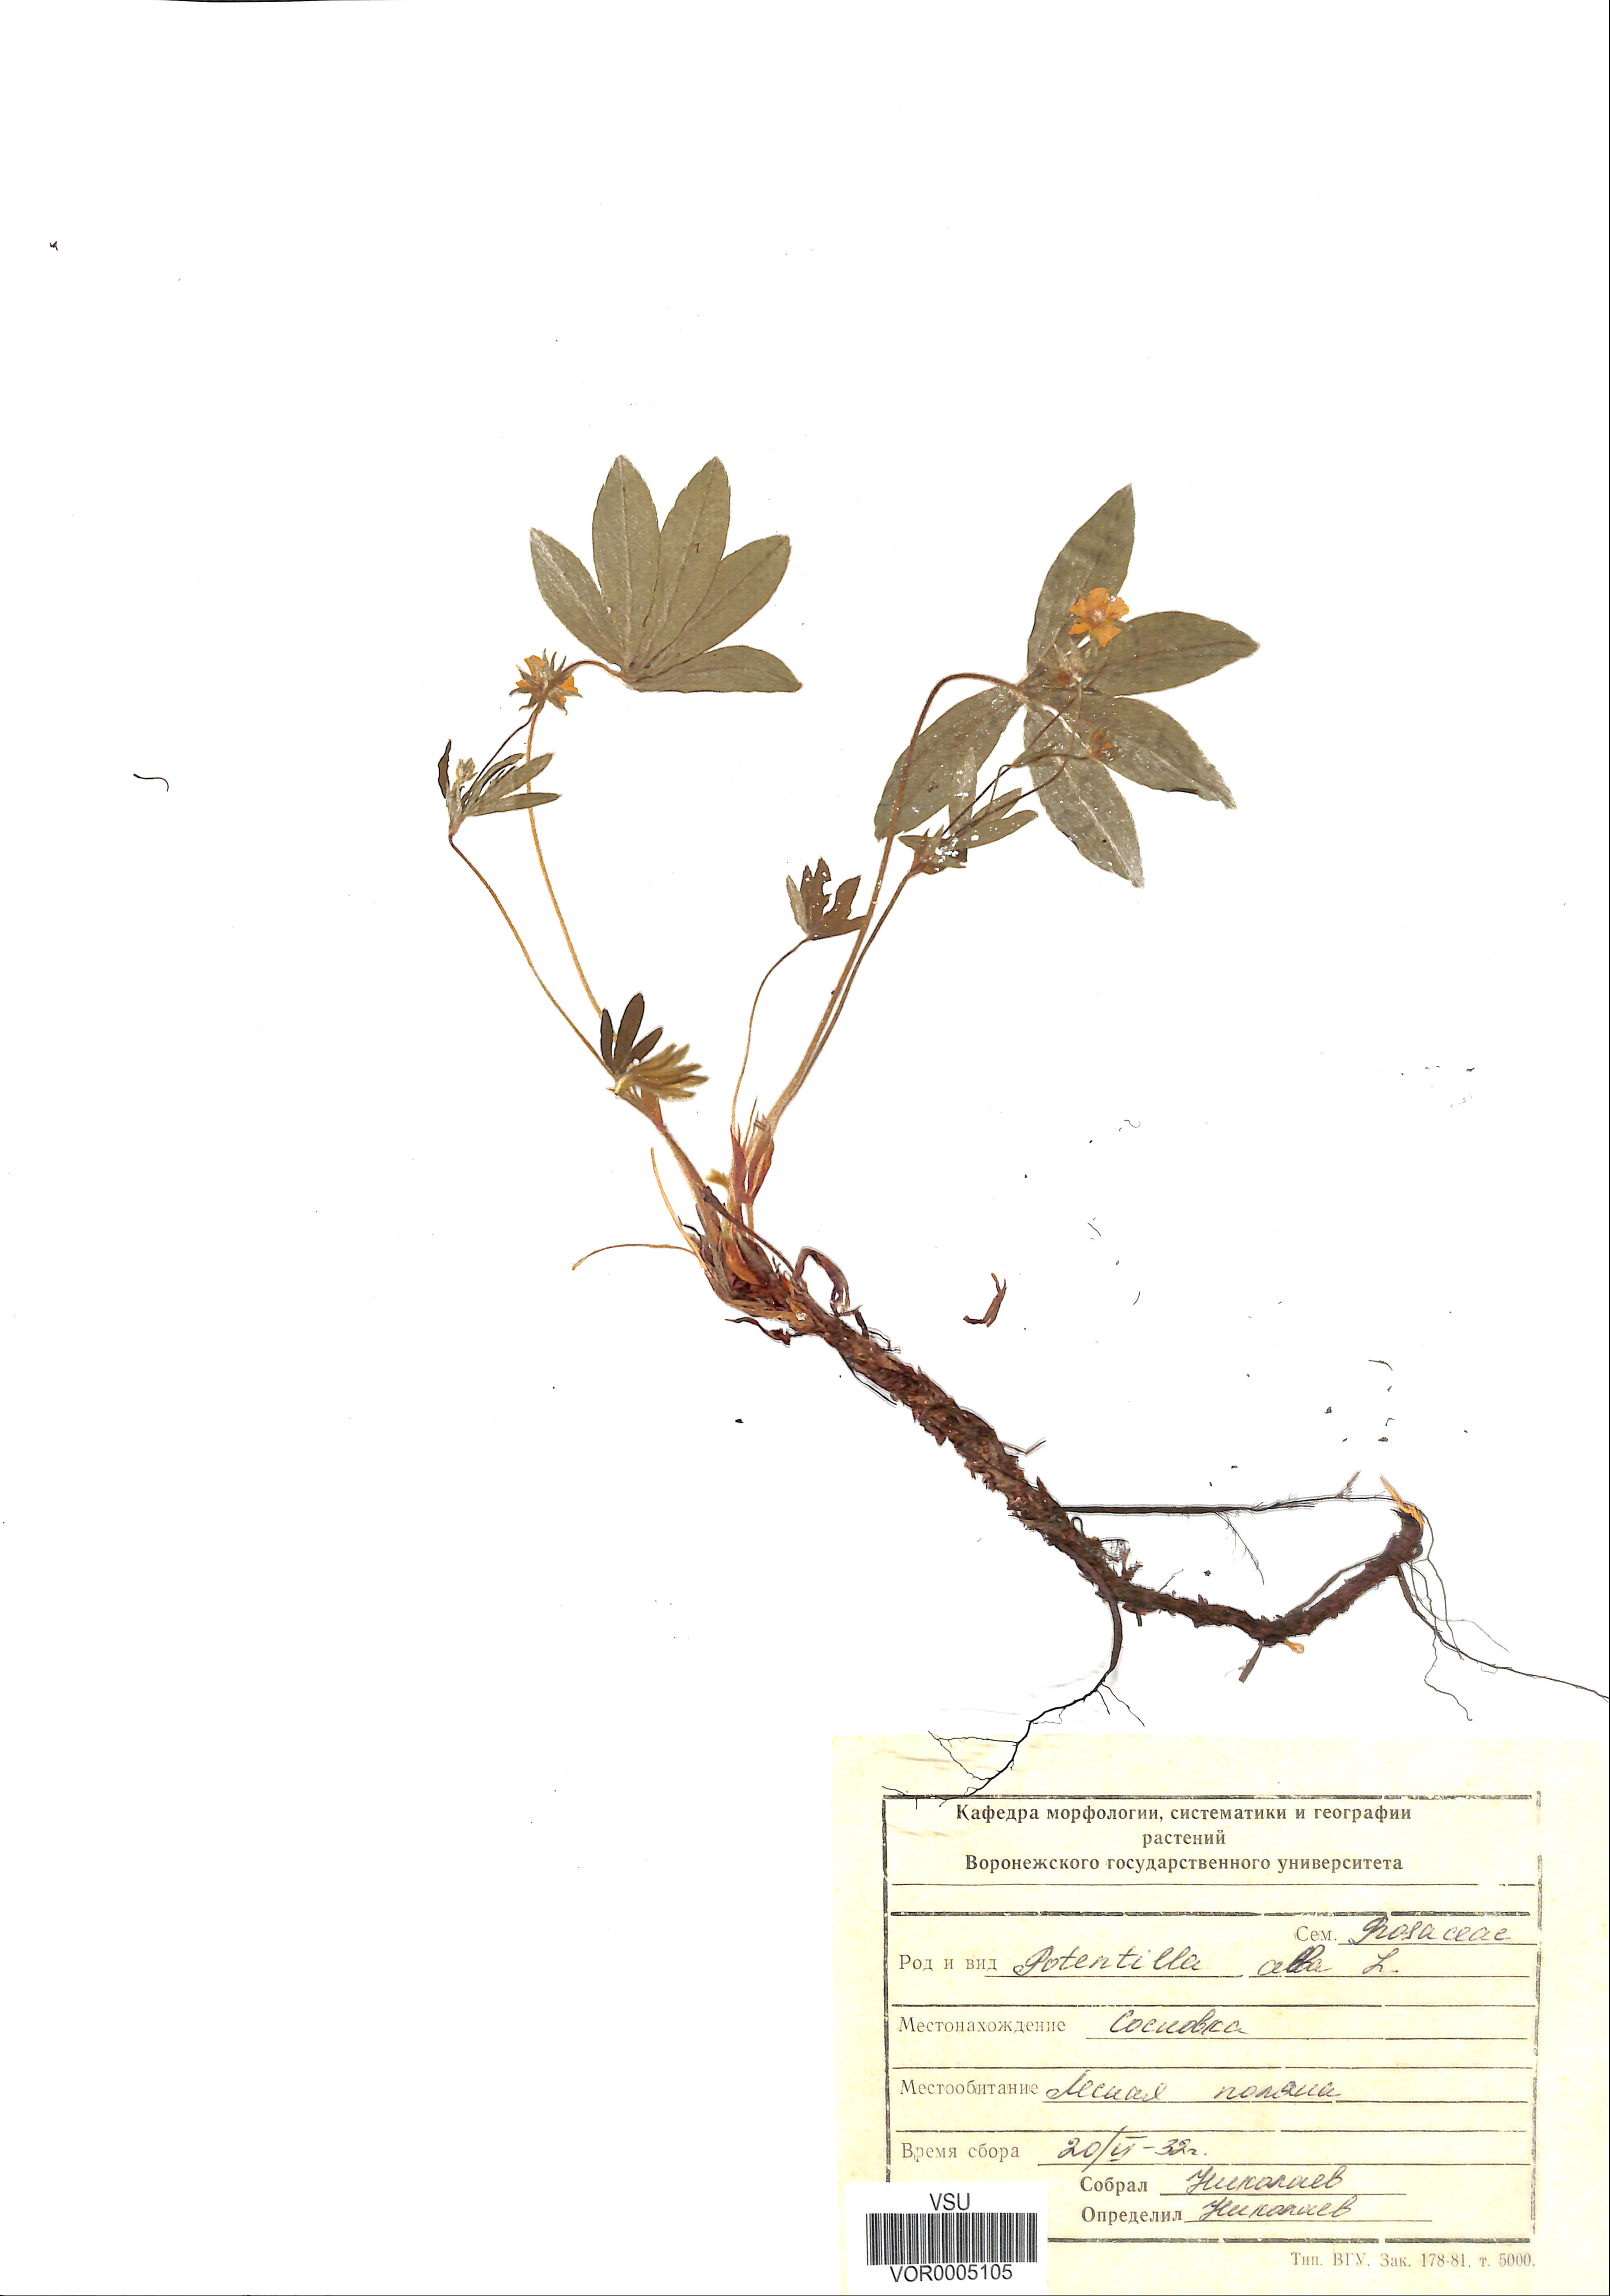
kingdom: Plantae
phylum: Tracheophyta
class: Magnoliopsida
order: Rosales
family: Rosaceae
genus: Potentilla
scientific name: Potentilla alba
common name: White cinquefoil
